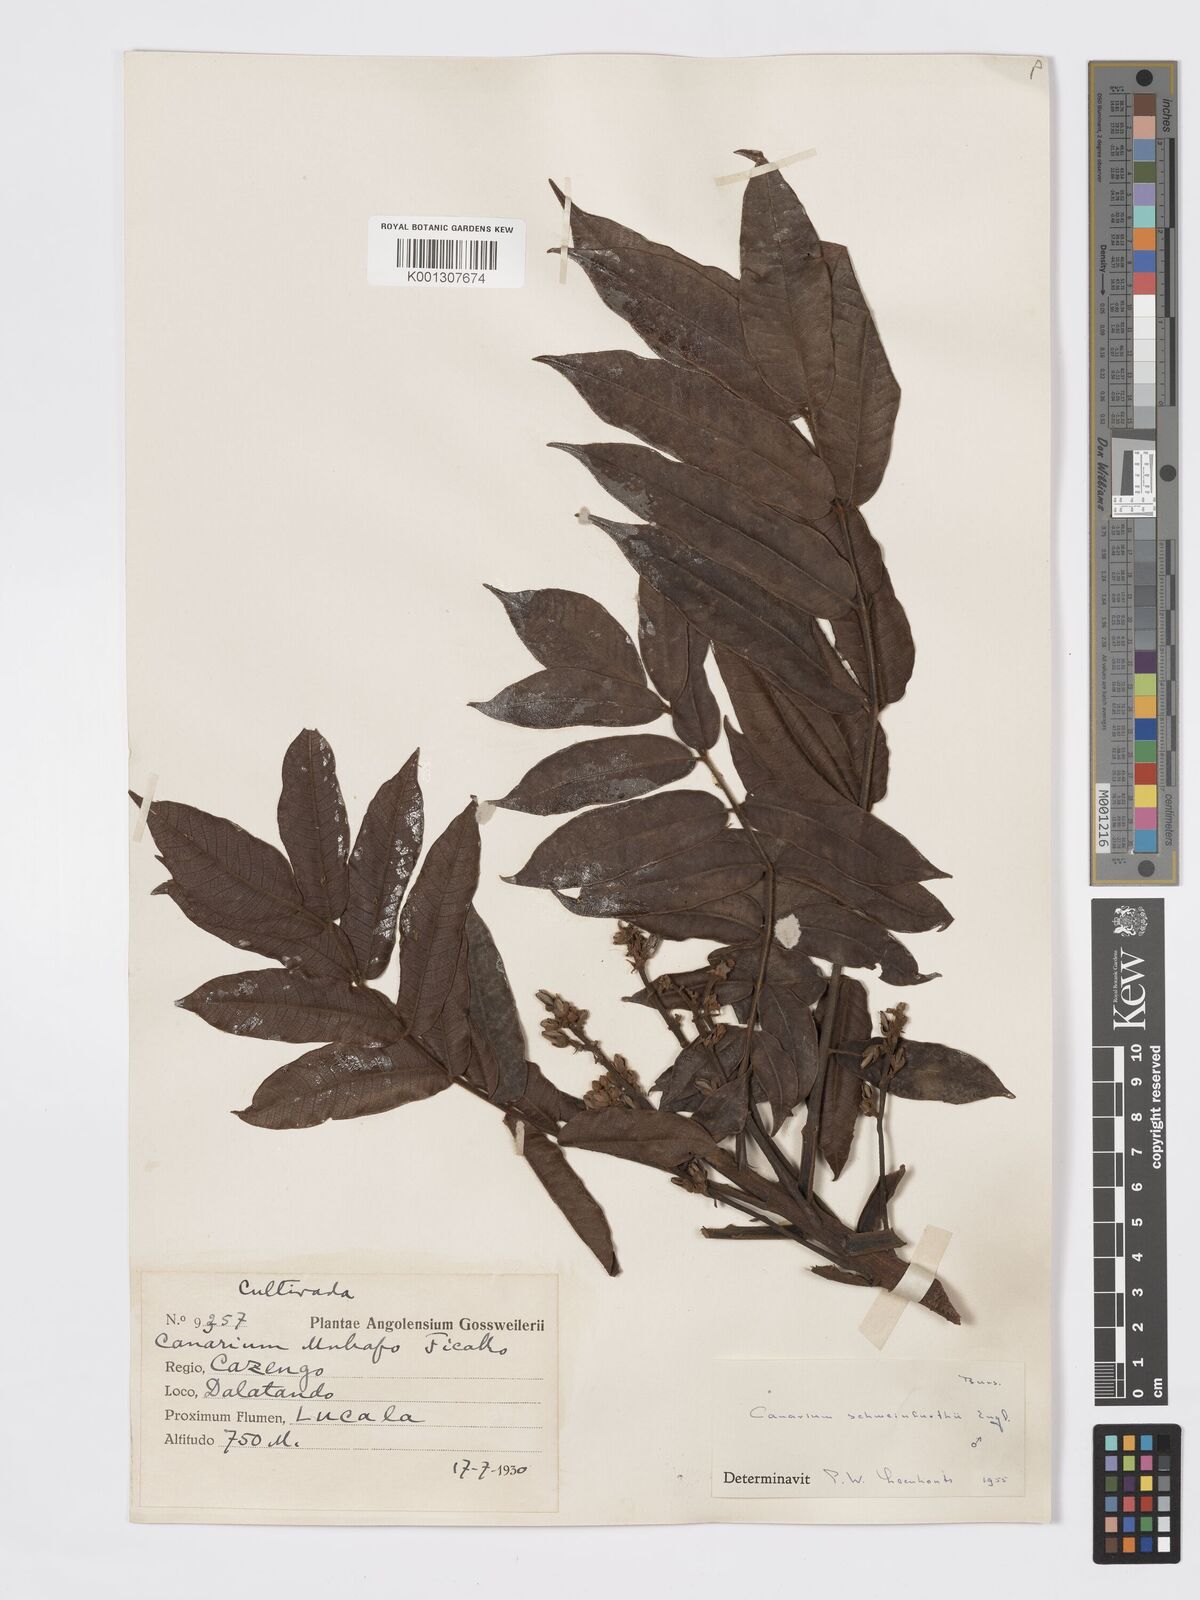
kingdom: Plantae
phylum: Tracheophyta
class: Magnoliopsida
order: Sapindales
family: Burseraceae
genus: Canarium
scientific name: Canarium schweinfurthii
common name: African elemi
